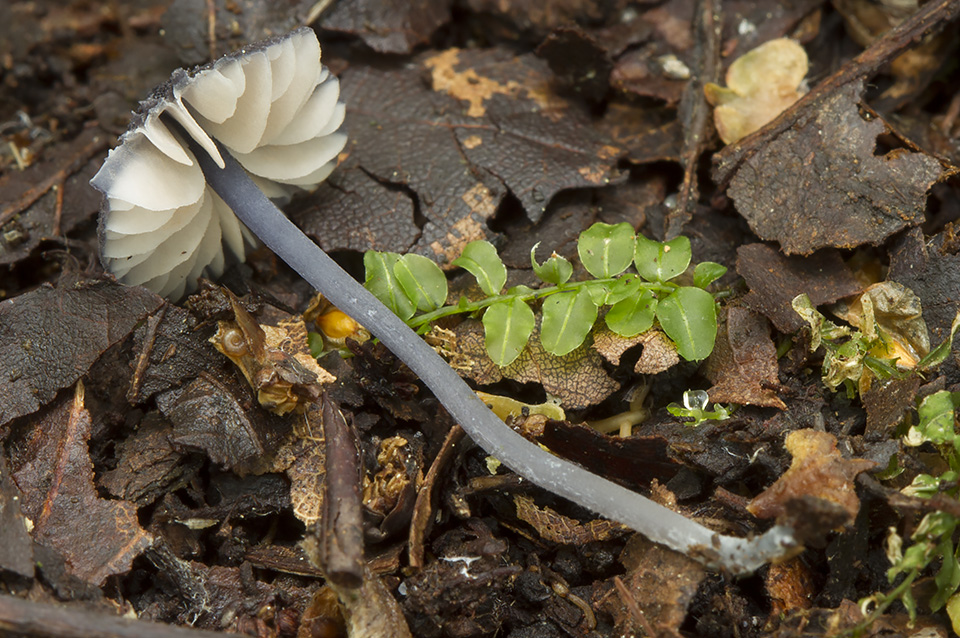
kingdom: Fungi
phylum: Basidiomycota
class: Agaricomycetes
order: Agaricales
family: Entolomataceae
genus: Entoloma
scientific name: Entoloma cyanulum
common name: violblå rødblad
